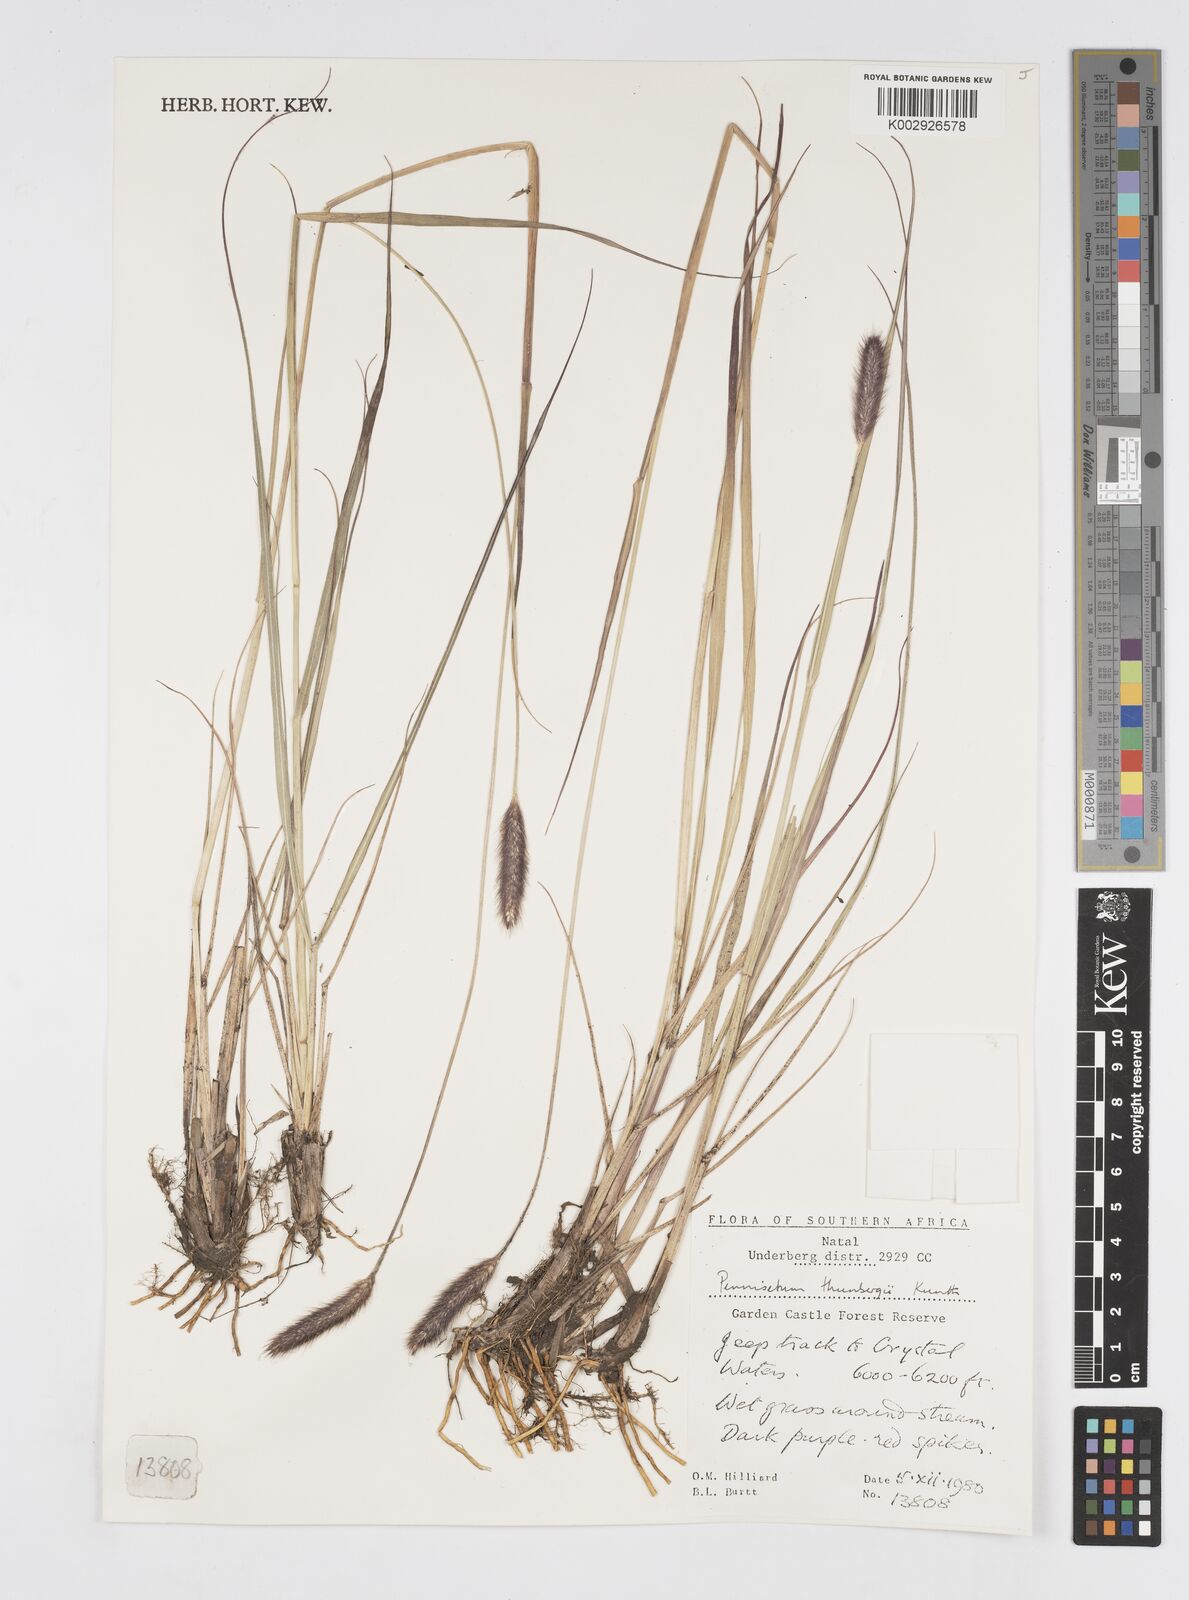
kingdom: Plantae
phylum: Tracheophyta
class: Liliopsida
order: Poales
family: Poaceae
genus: Cenchrus
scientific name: Cenchrus geniculatus
